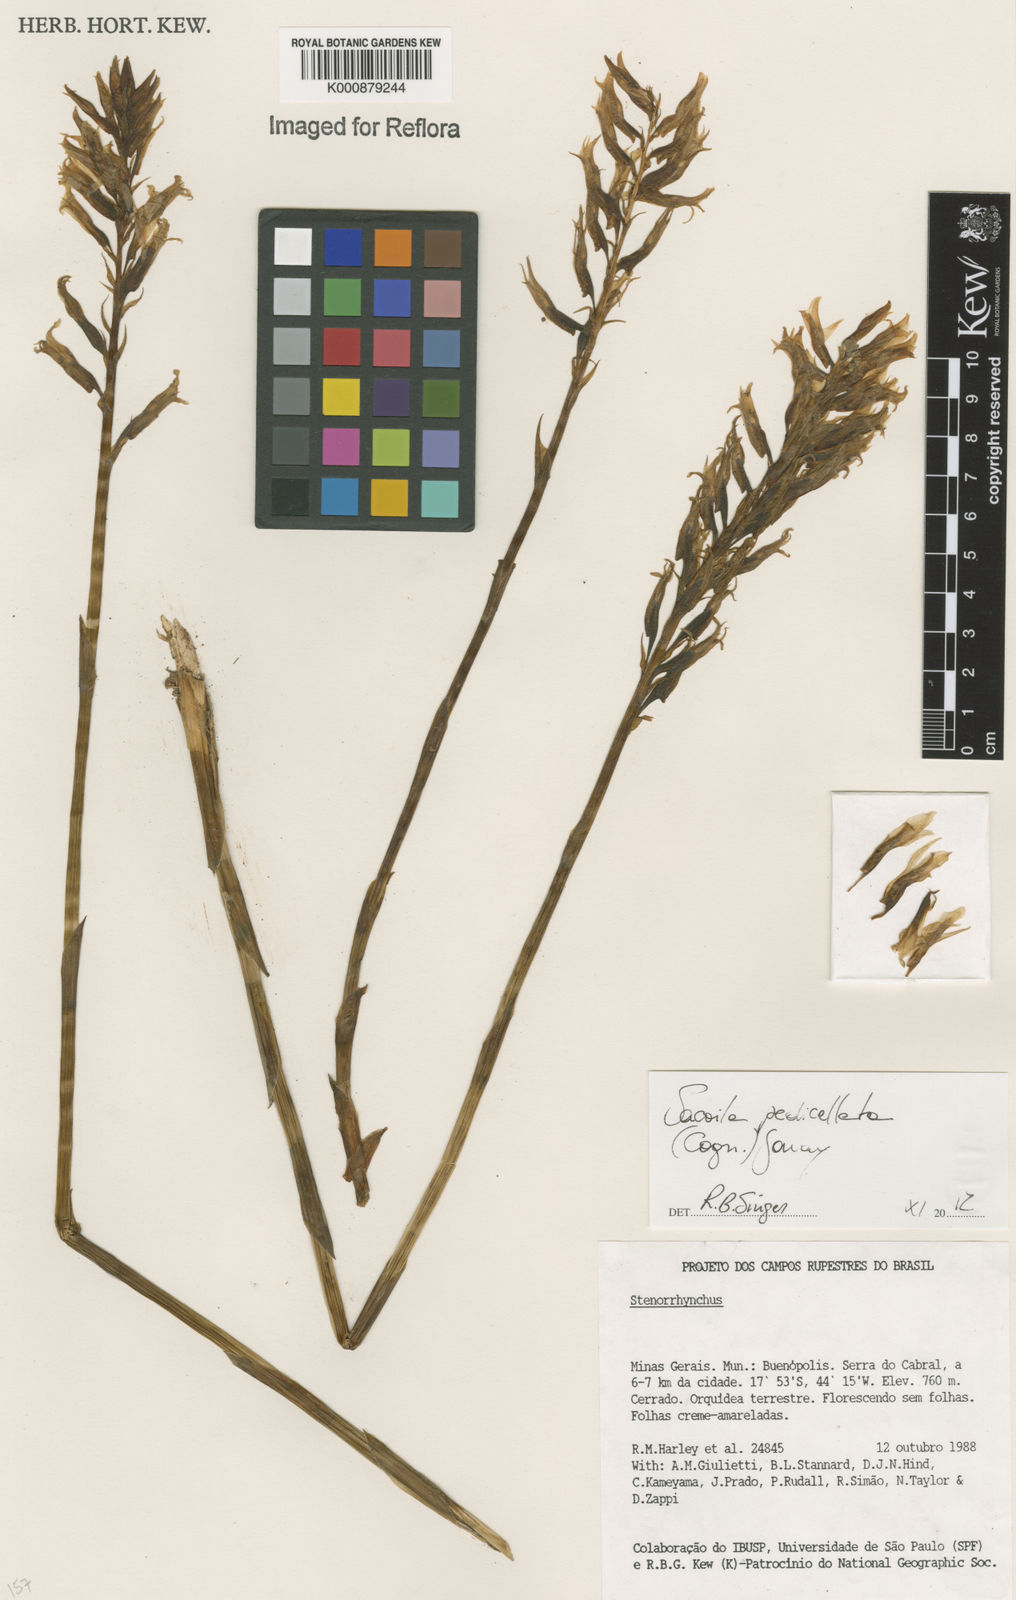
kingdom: Plantae
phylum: Tracheophyta
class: Liliopsida
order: Asparagales
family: Orchidaceae
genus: Sacoila
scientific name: Sacoila lanceolata
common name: Leafless beaked ladiestresses
